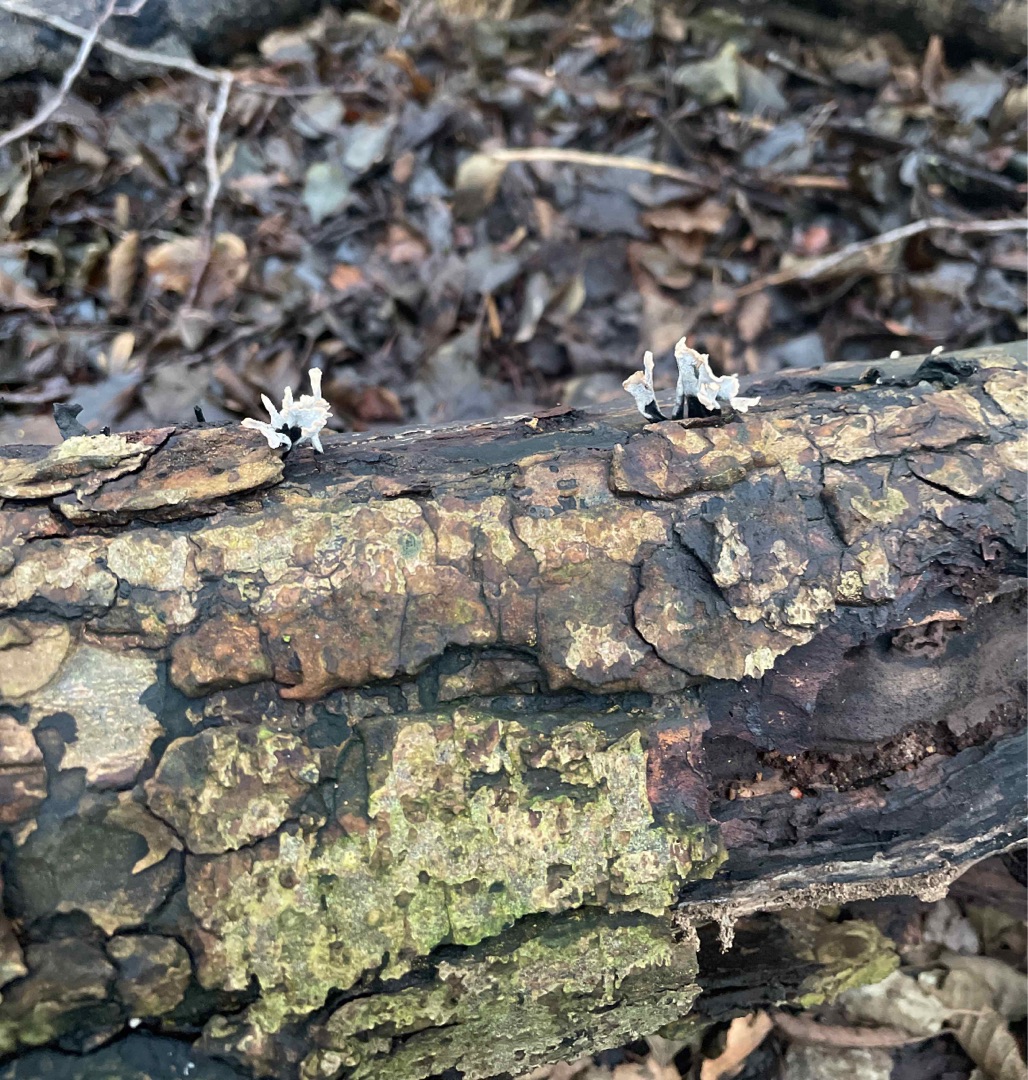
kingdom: Fungi
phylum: Ascomycota
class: Sordariomycetes
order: Xylariales
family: Xylariaceae
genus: Xylaria
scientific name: Xylaria hypoxylon
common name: Grenet stødsvamp
